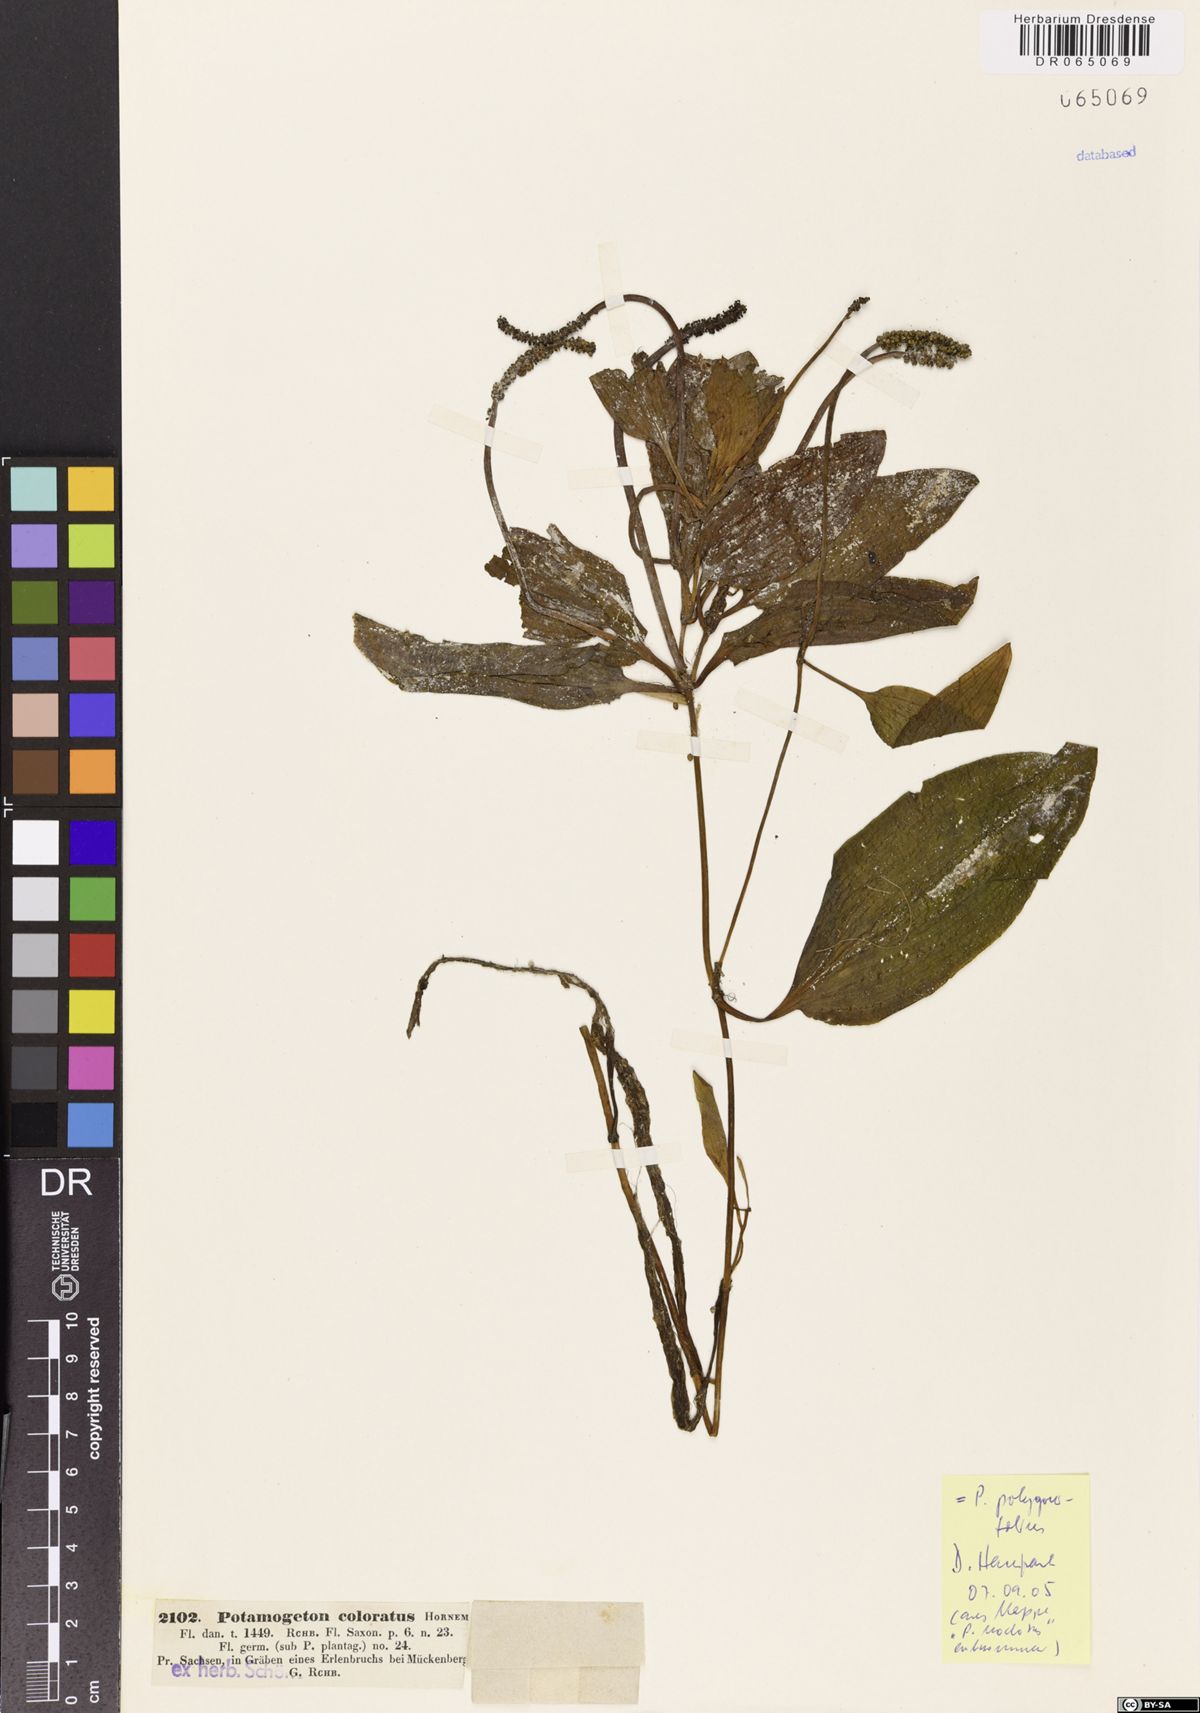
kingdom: Plantae
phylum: Tracheophyta
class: Liliopsida
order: Alismatales
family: Potamogetonaceae
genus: Potamogeton
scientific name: Potamogeton polygonifolius
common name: Bog pondweed
